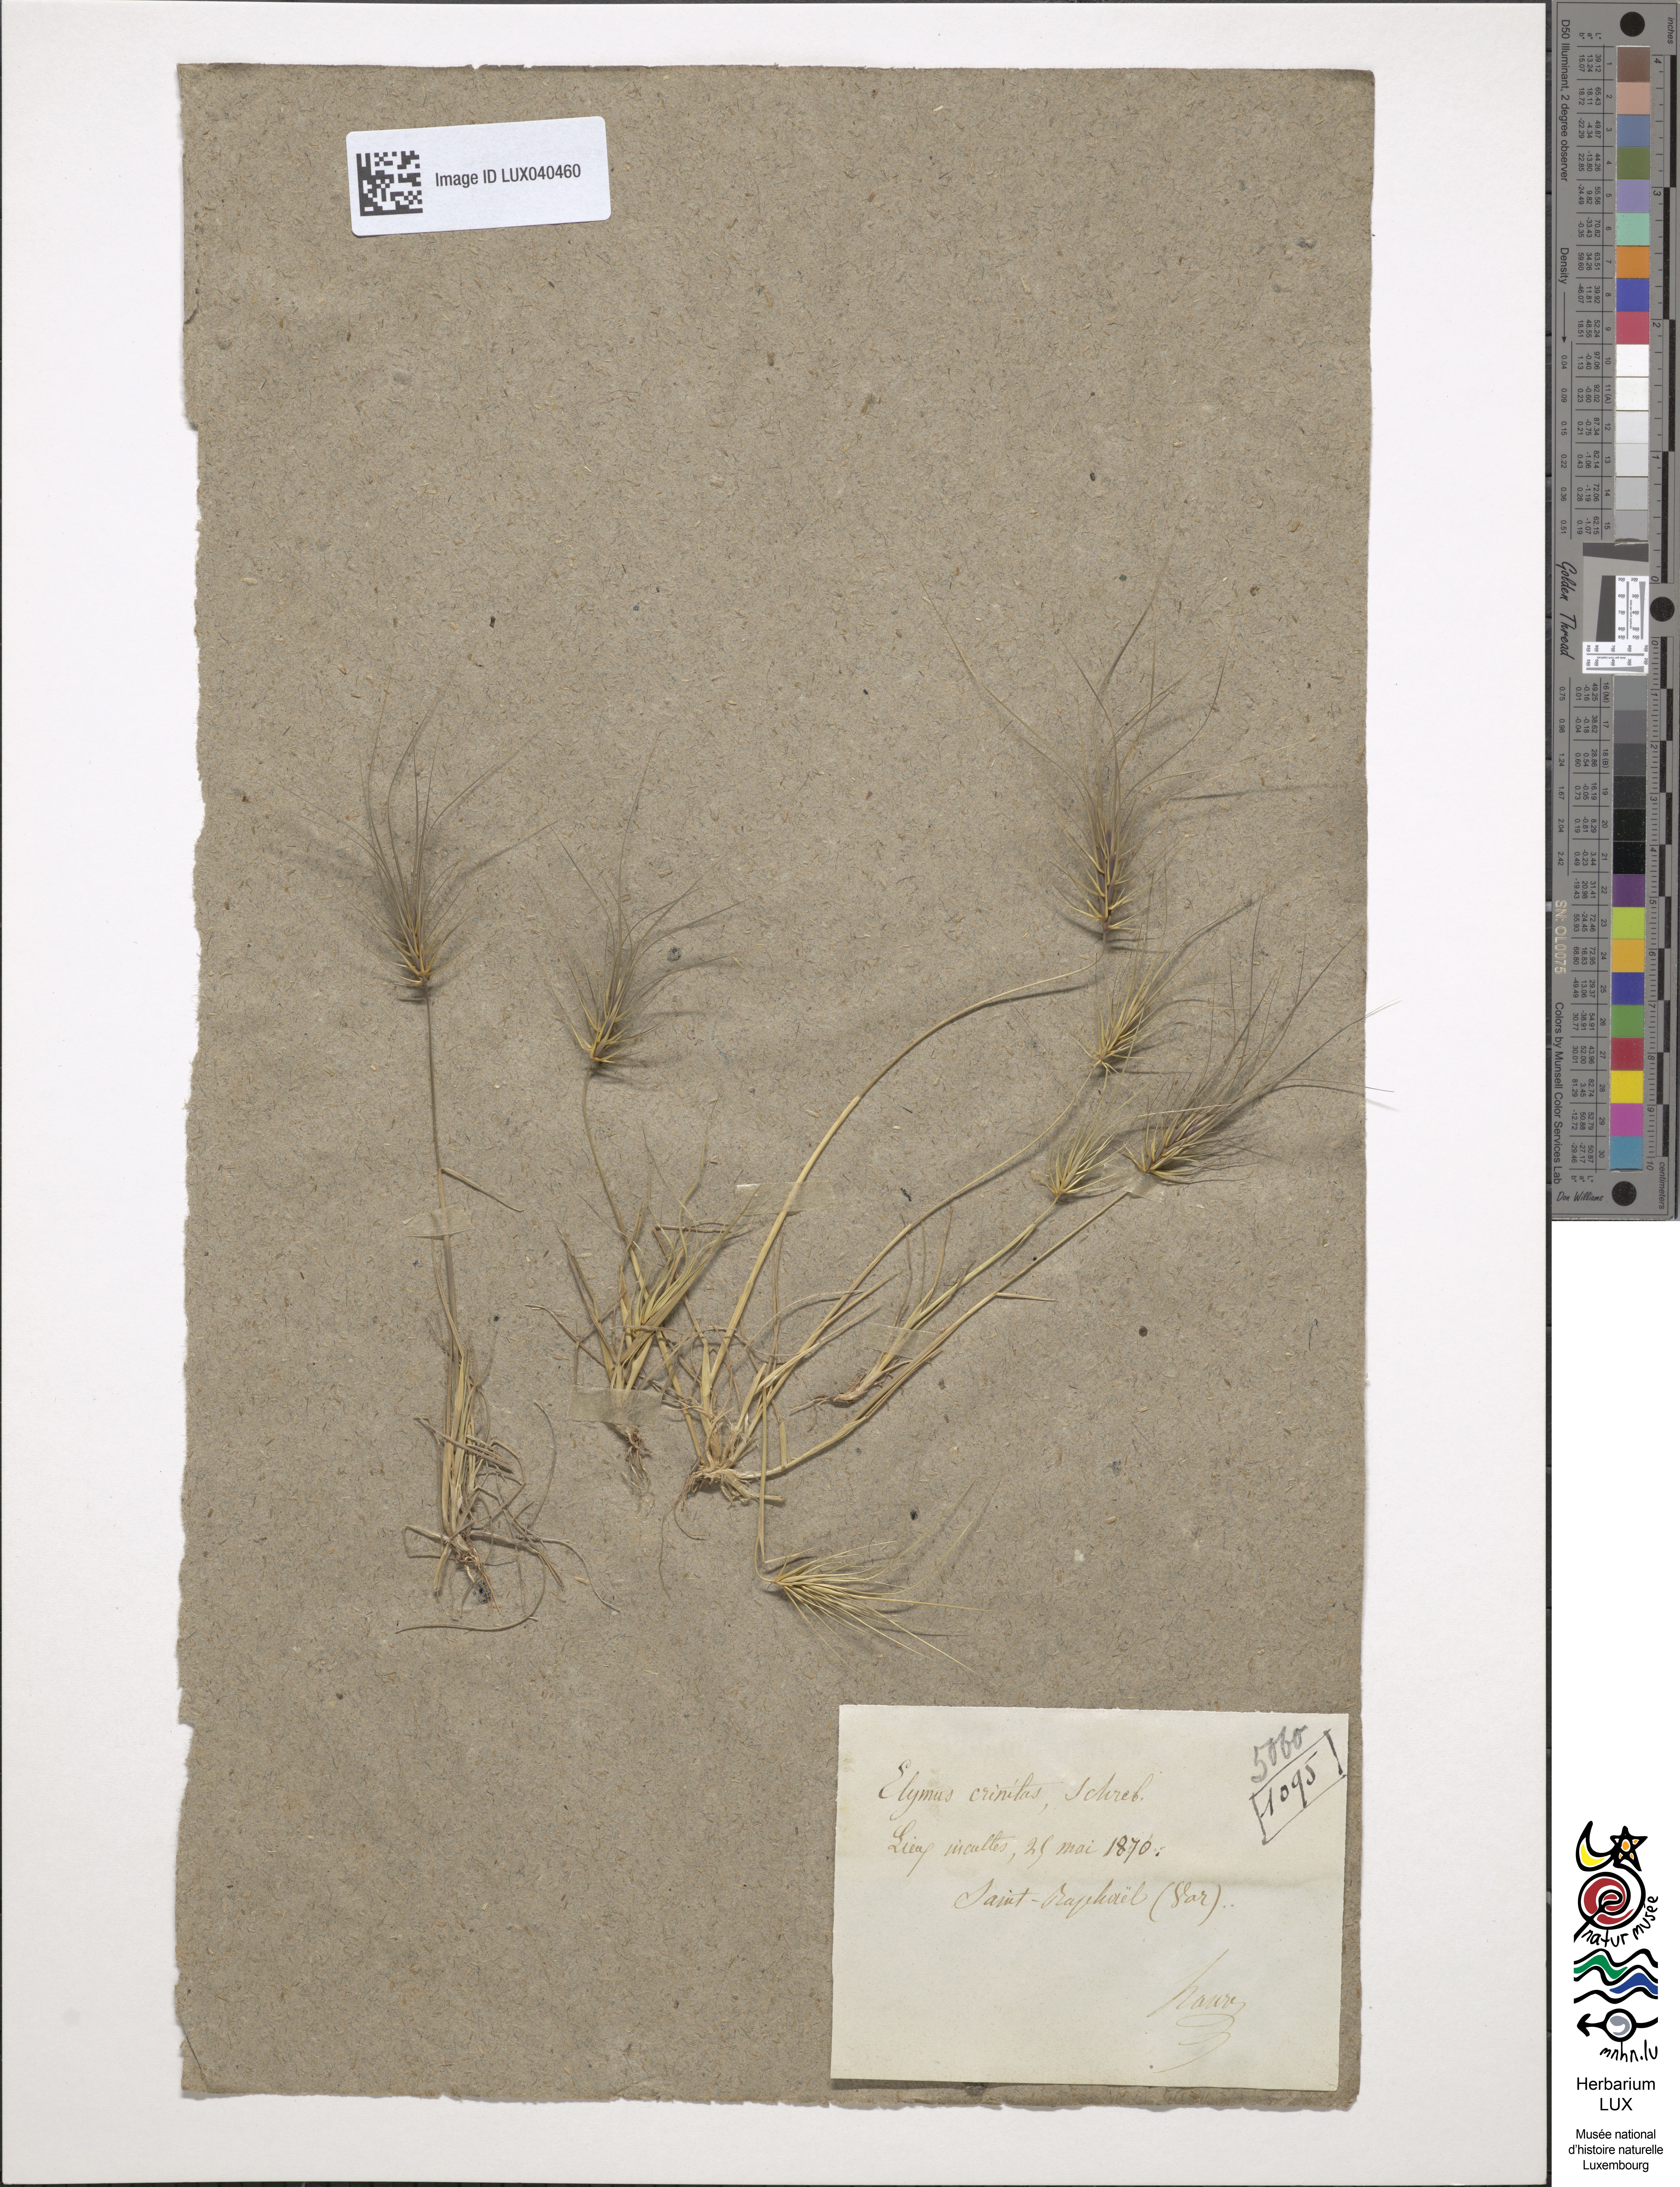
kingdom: Plantae
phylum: Tracheophyta
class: Liliopsida
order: Poales
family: Poaceae
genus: Taeniatherum
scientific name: Taeniatherum caput-medusae
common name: Medusahead
